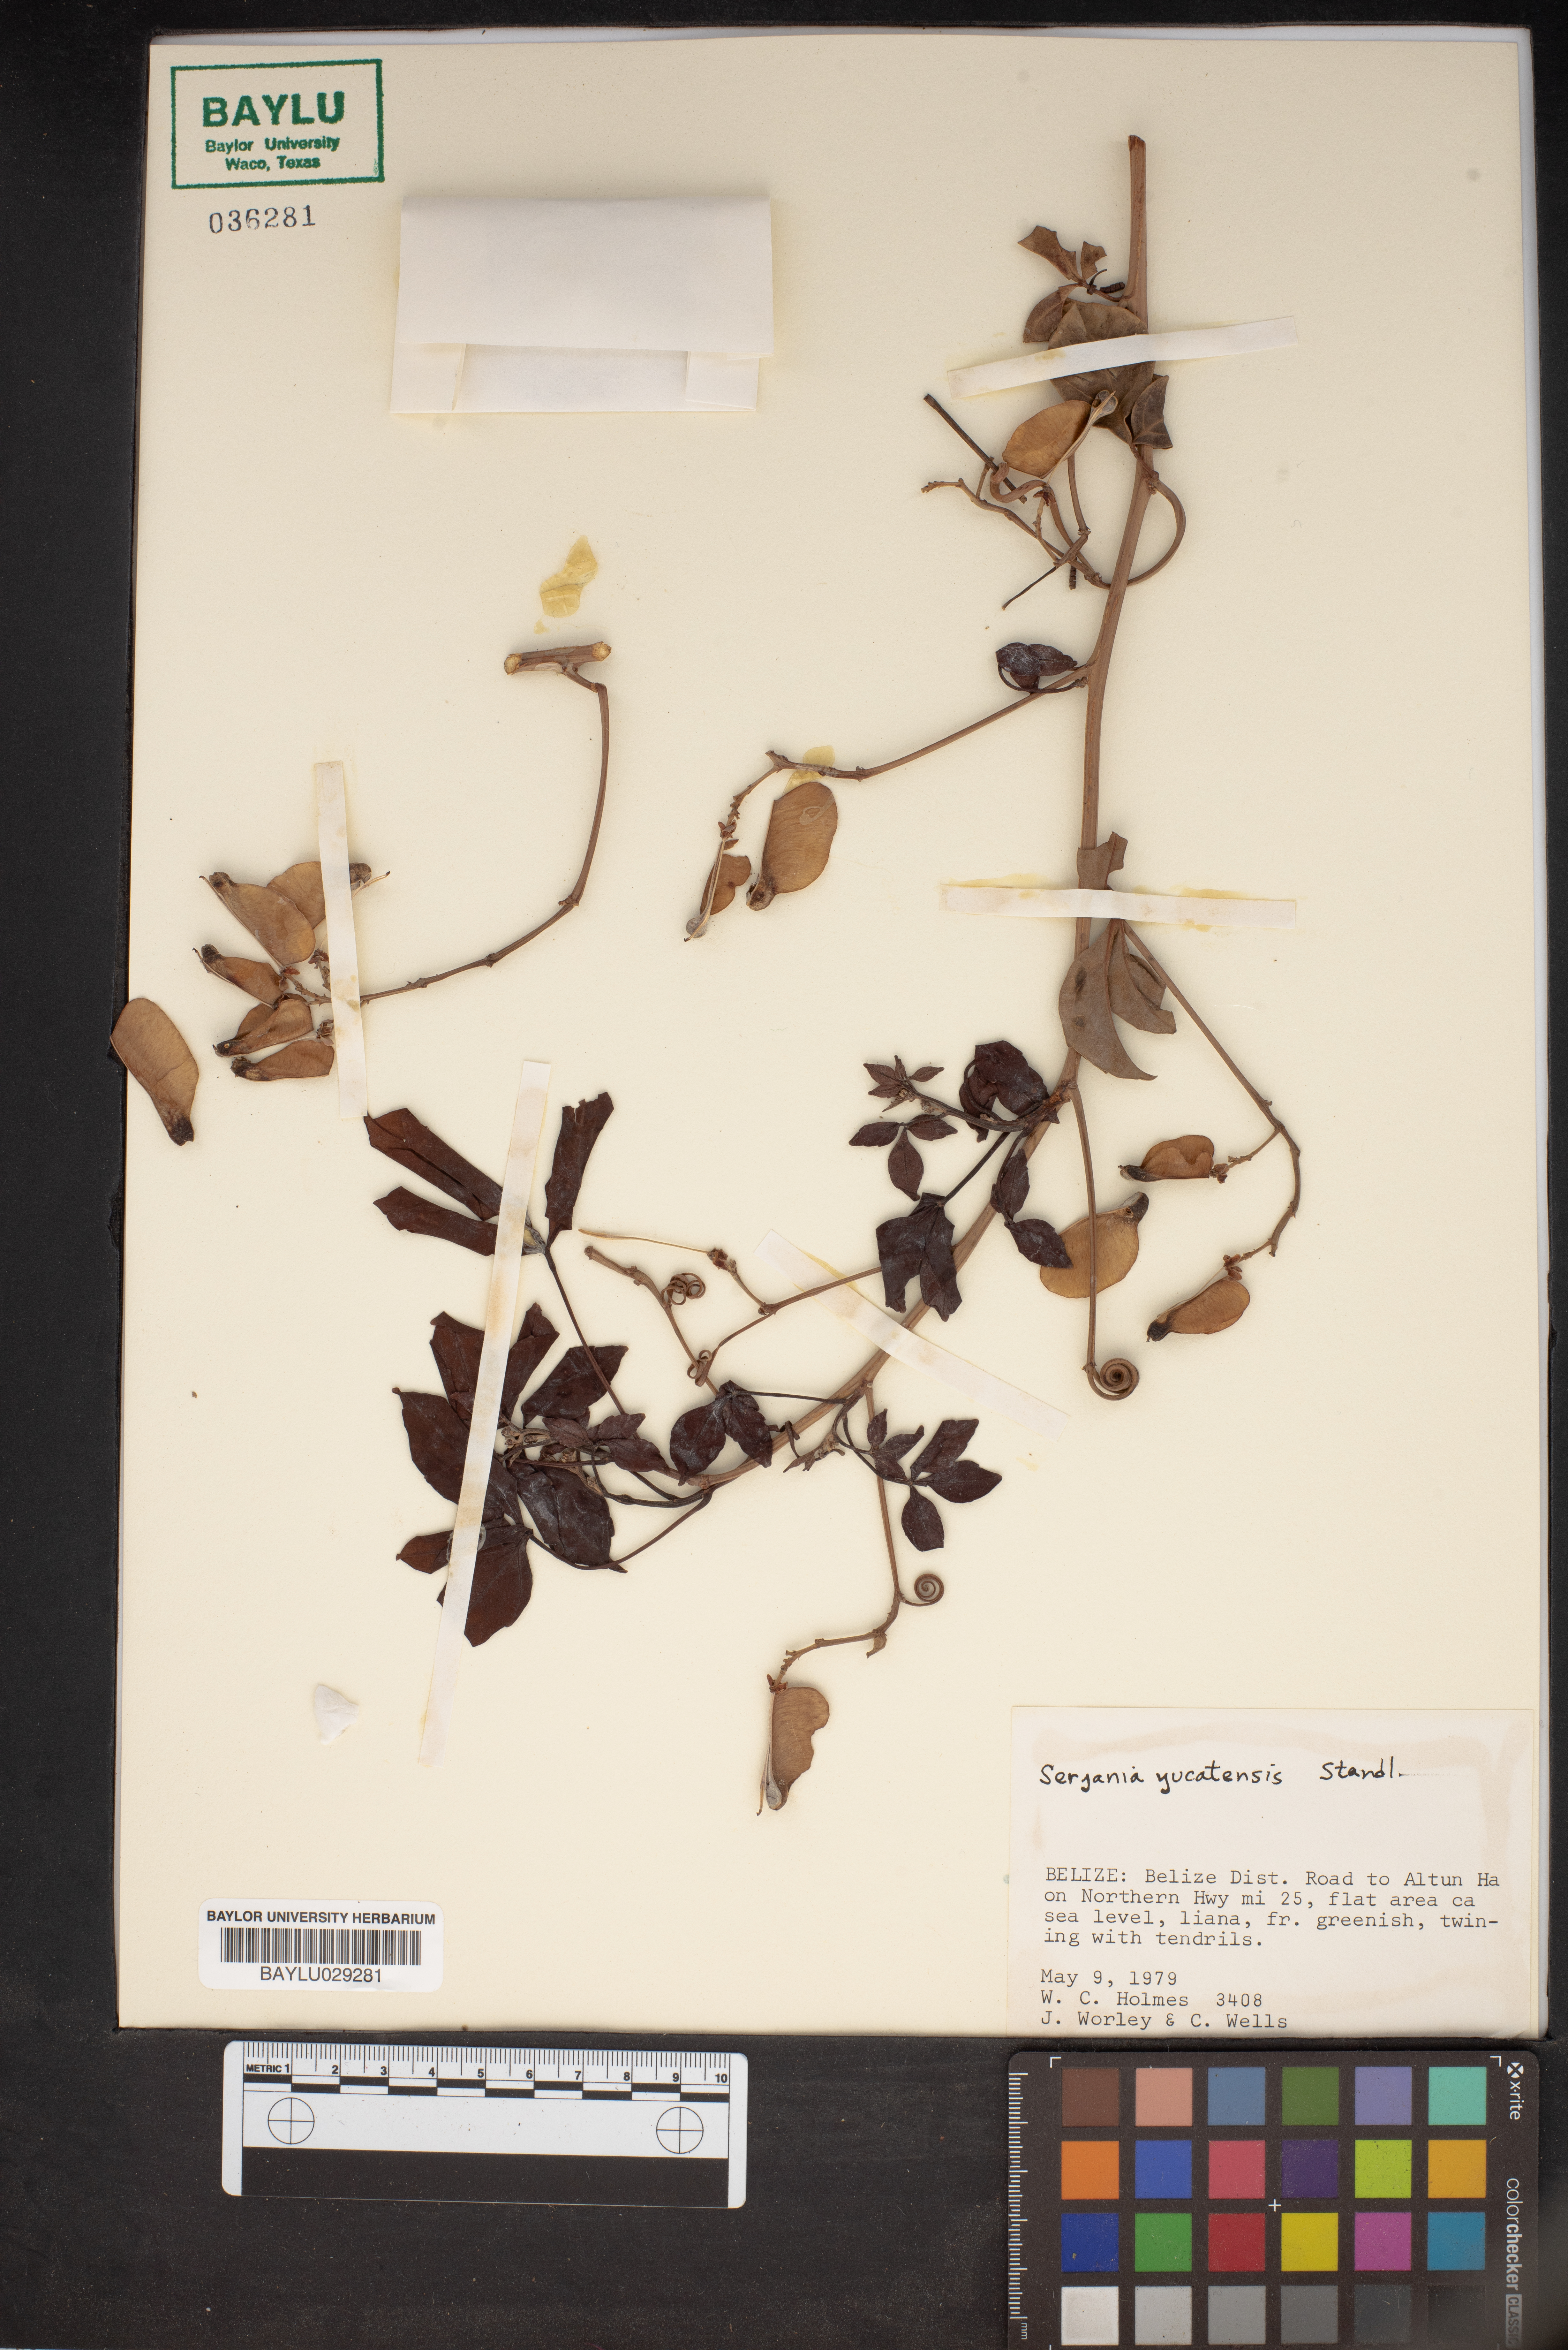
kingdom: Plantae
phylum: Tracheophyta
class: Magnoliopsida
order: Sapindales
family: Sapindaceae
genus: Serjania
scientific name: Serjania yucatanensis
